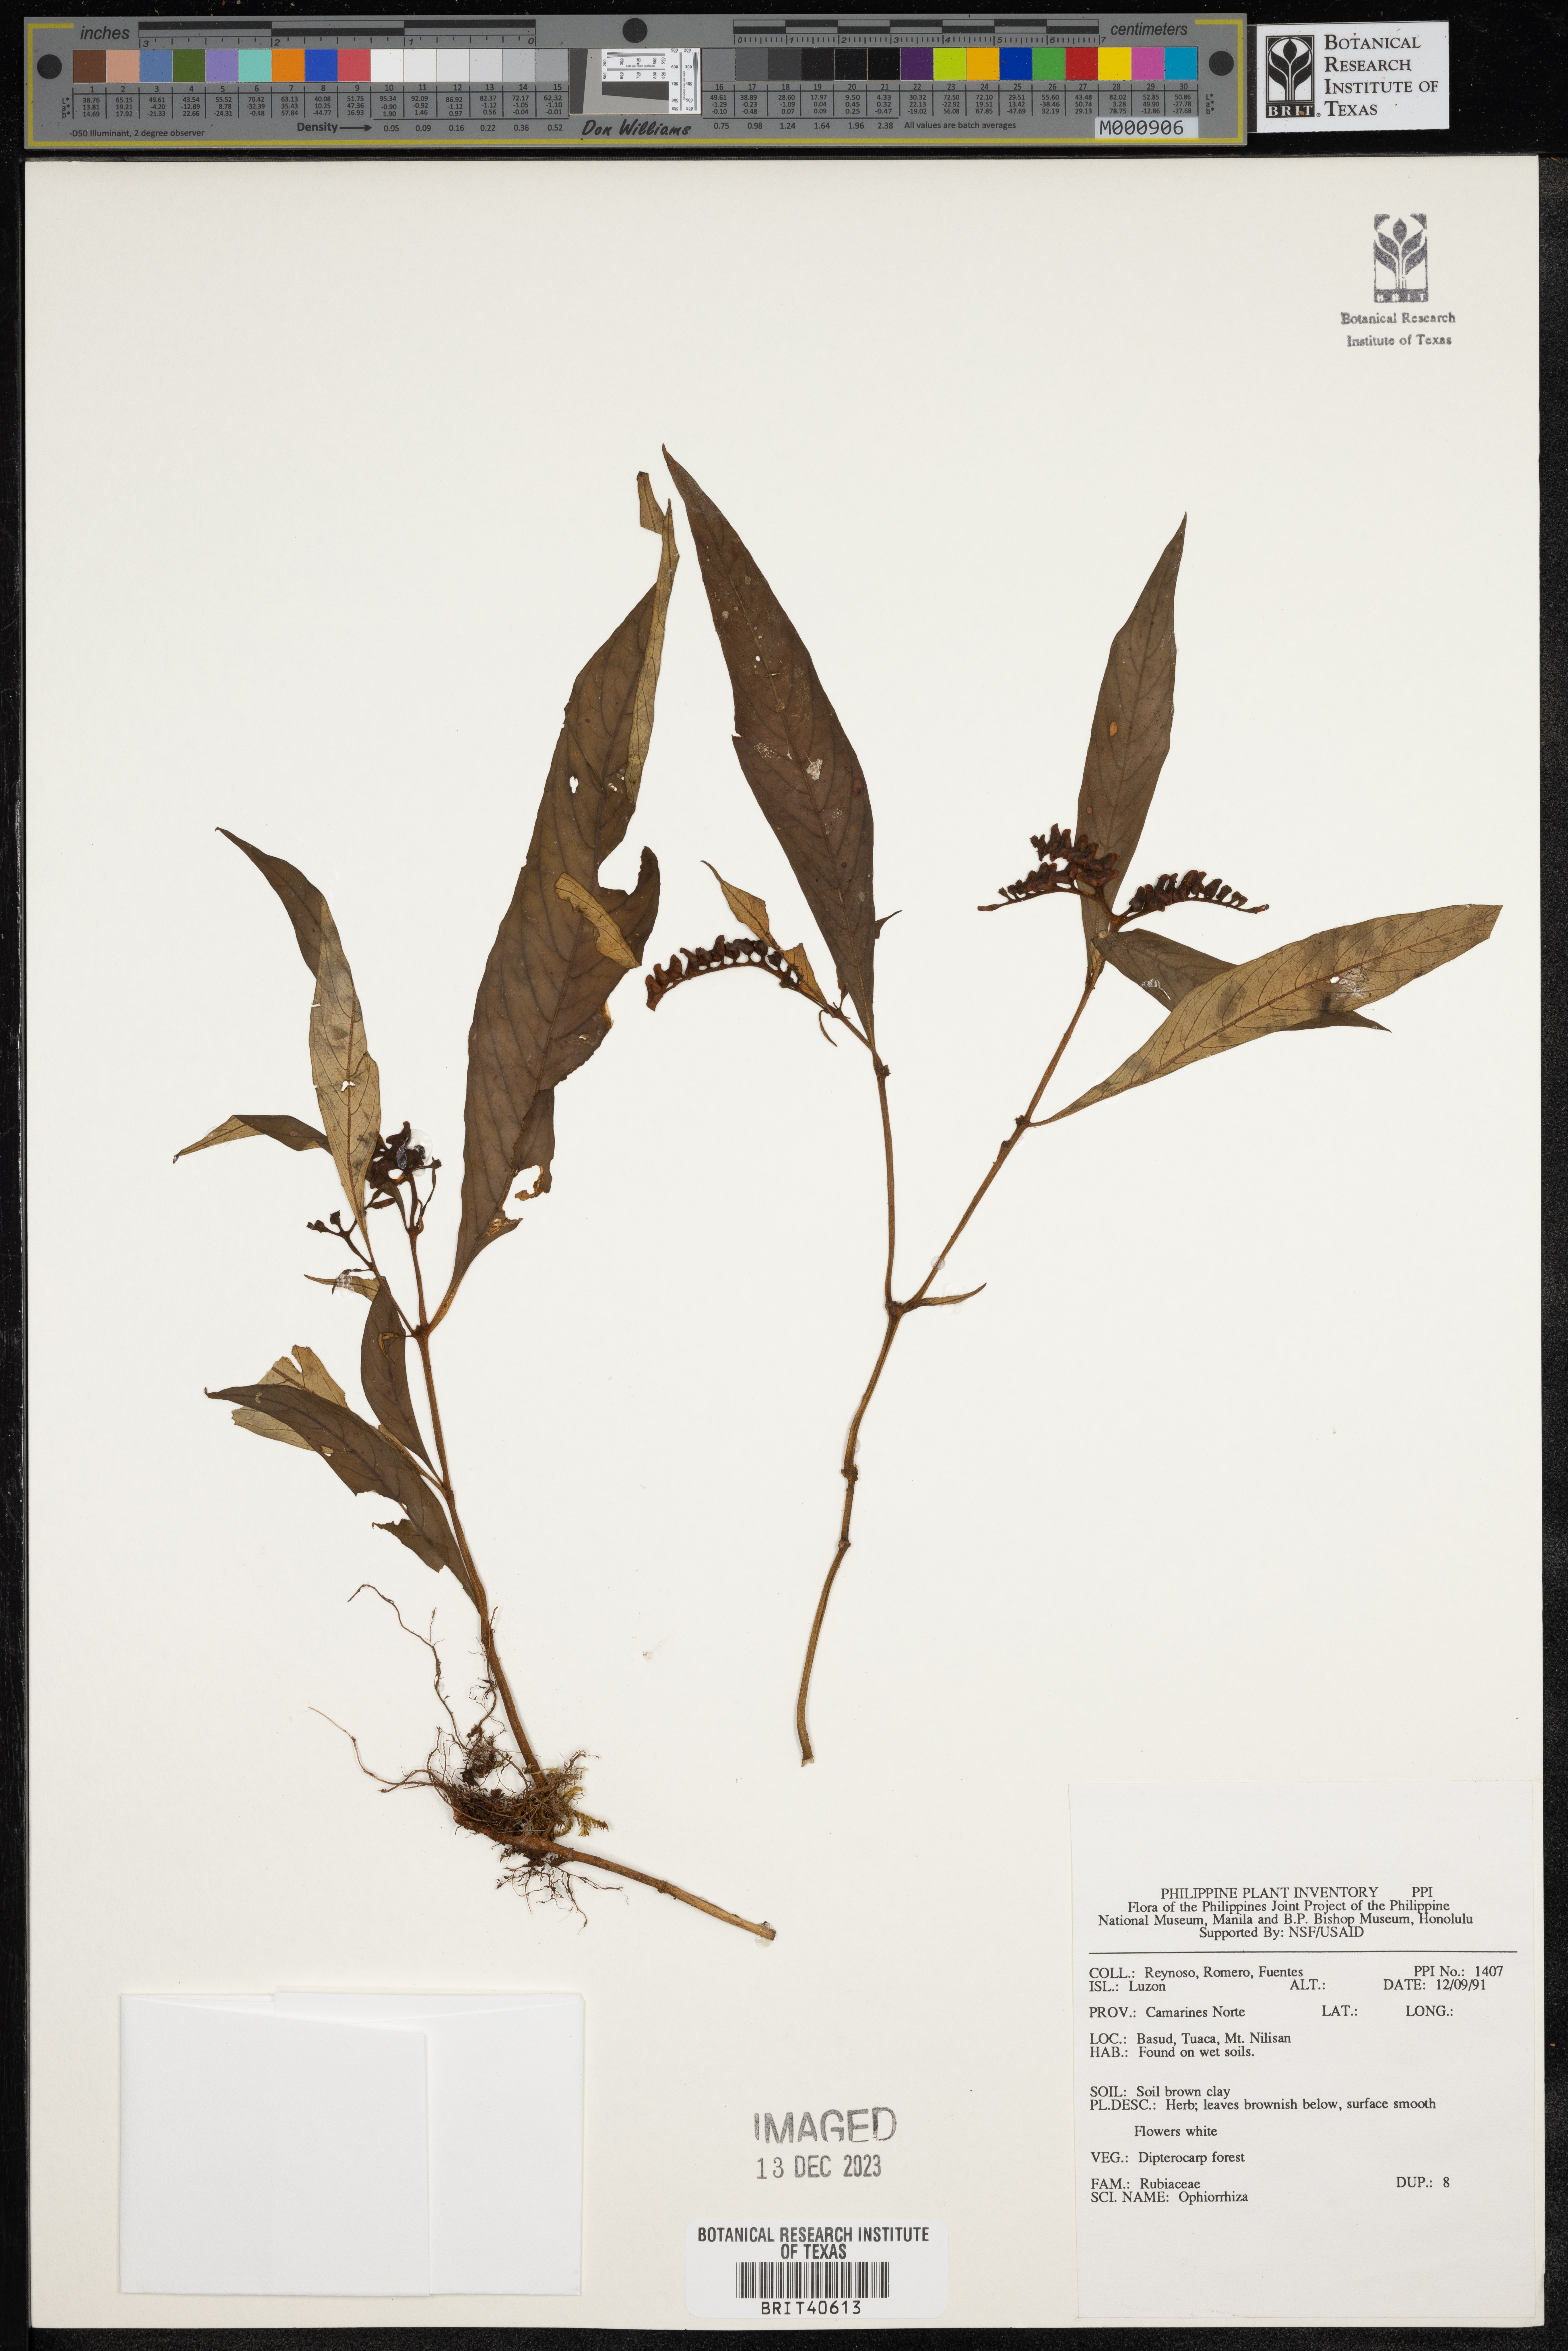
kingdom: Plantae
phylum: Tracheophyta
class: Magnoliopsida
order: Gentianales
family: Rubiaceae
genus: Ophiorrhiza
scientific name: Ophiorrhiza
